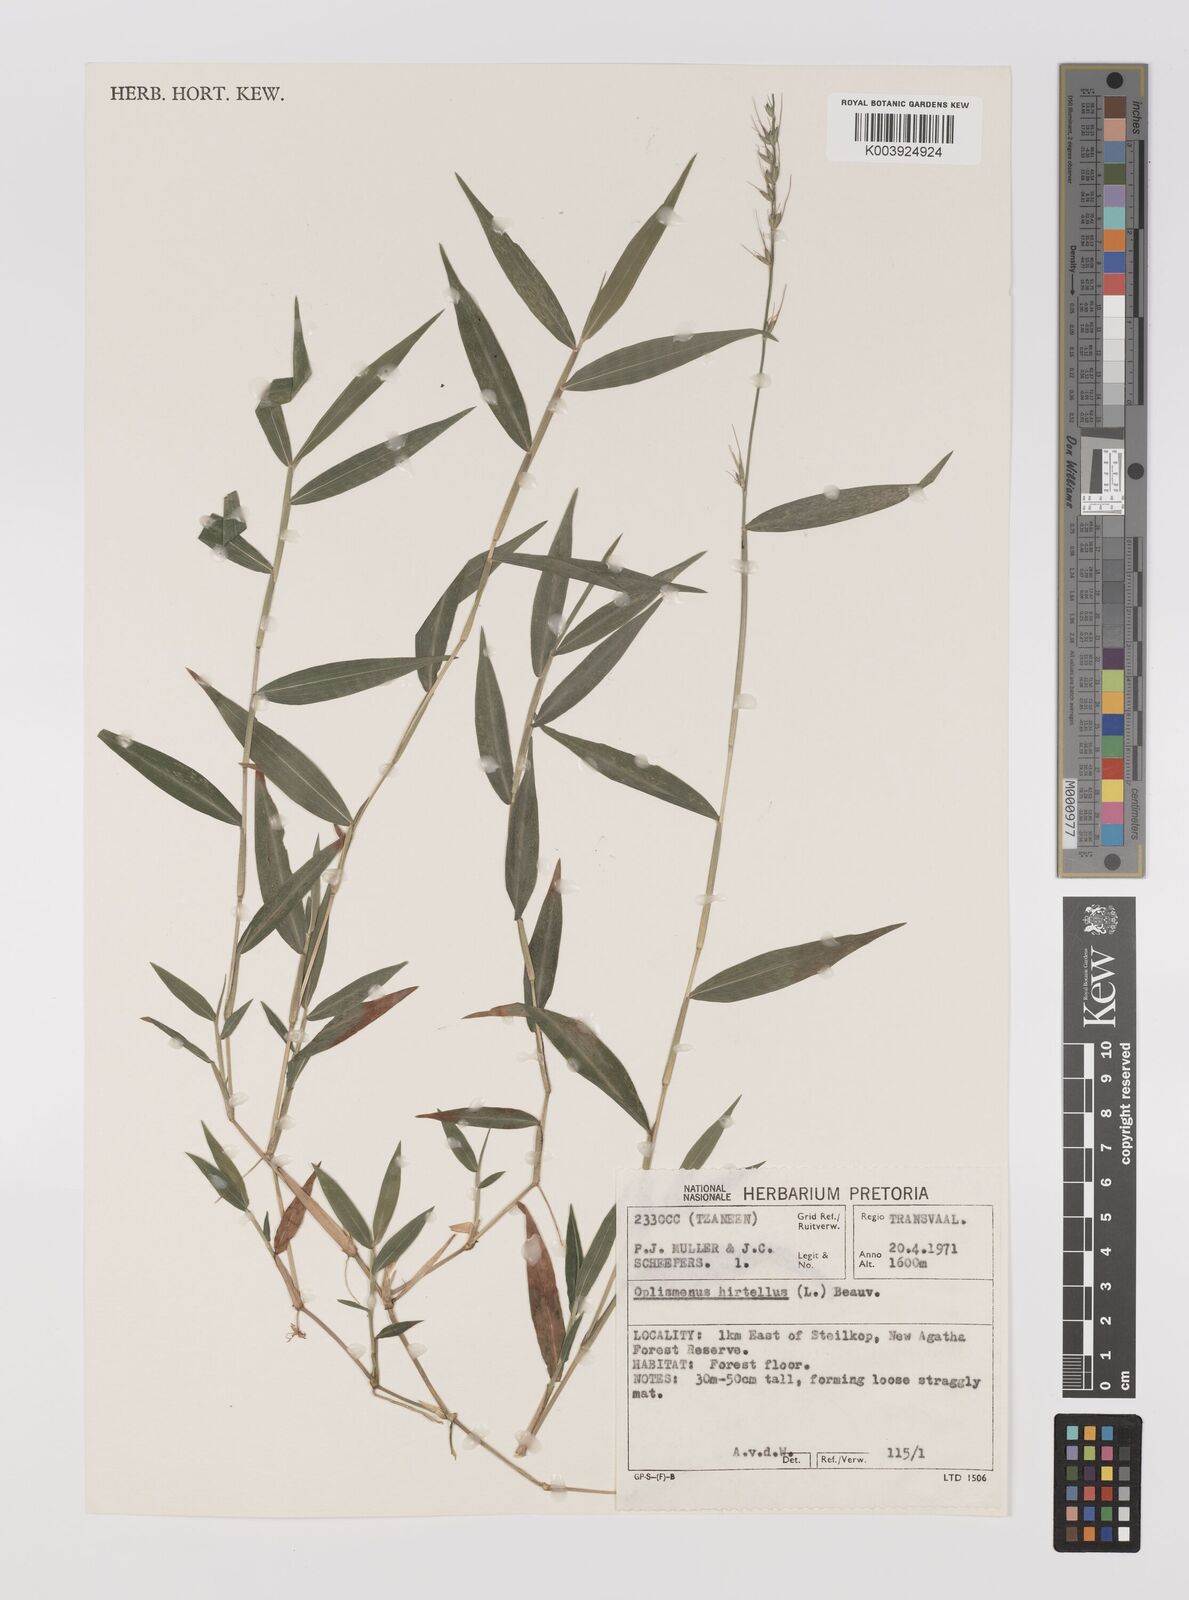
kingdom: Plantae
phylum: Tracheophyta
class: Liliopsida
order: Poales
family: Poaceae
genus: Oplismenus
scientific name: Oplismenus undulatifolius
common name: Wavyleaf basketgrass
